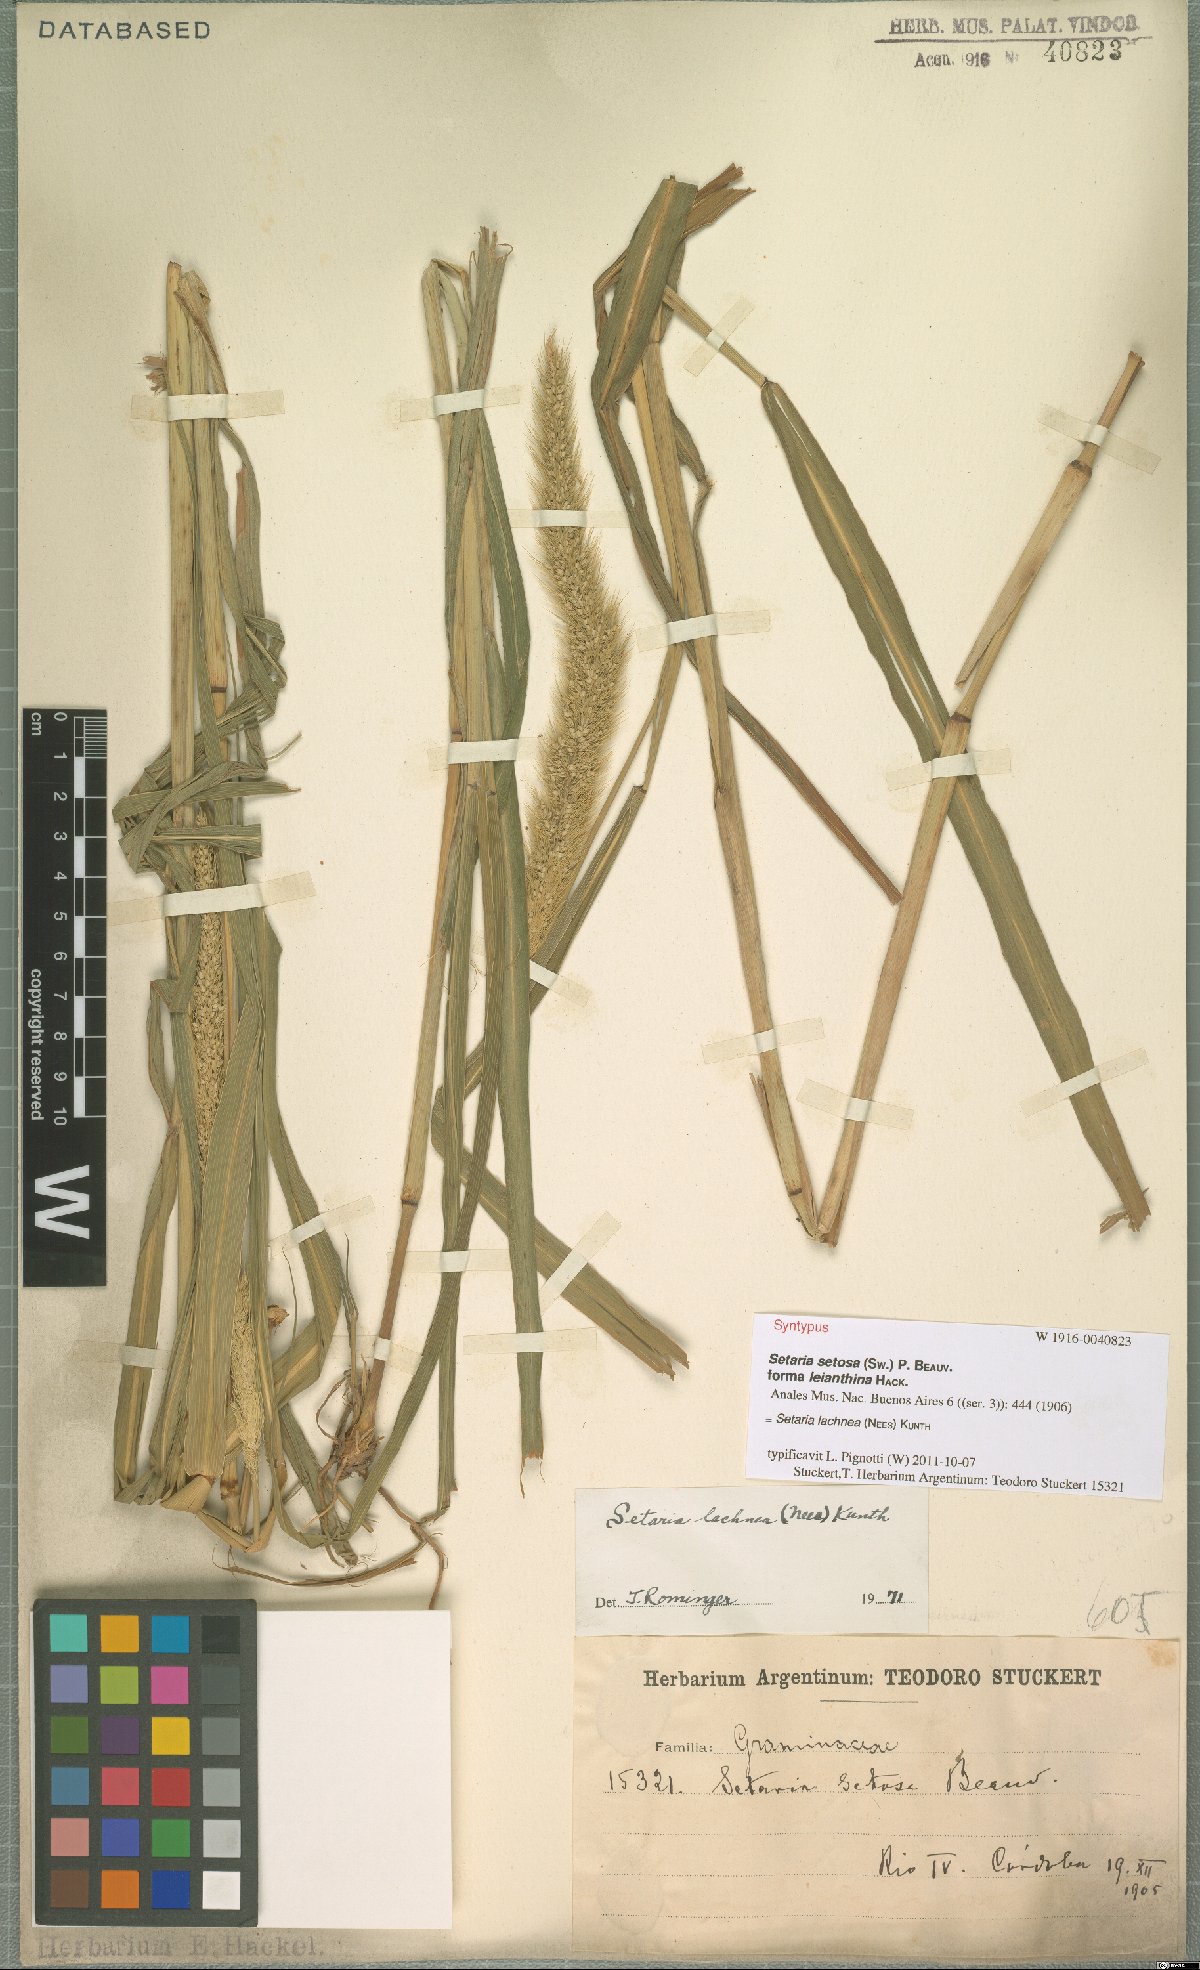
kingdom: Plantae
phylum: Tracheophyta
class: Liliopsida
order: Poales
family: Poaceae
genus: Setaria
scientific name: Setaria lachnea
